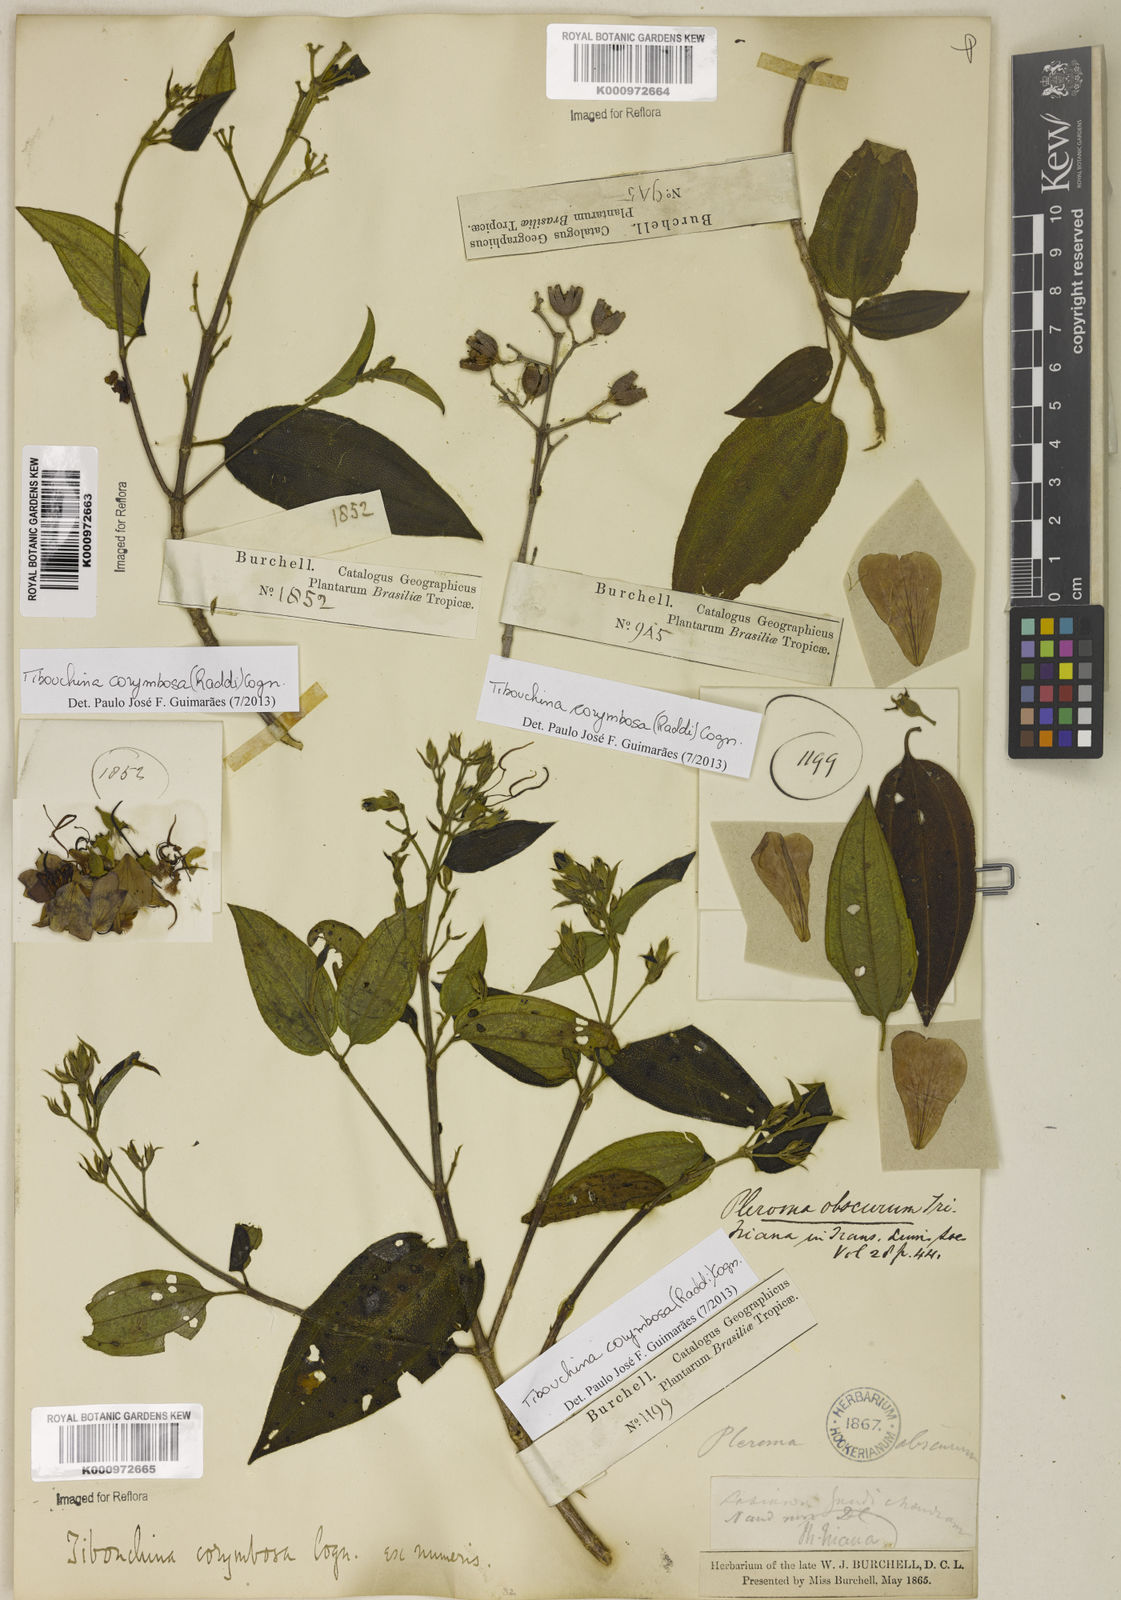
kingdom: Plantae
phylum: Tracheophyta
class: Magnoliopsida
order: Myrtales
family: Melastomataceae
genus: Pleroma
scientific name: Pleroma vimineum
